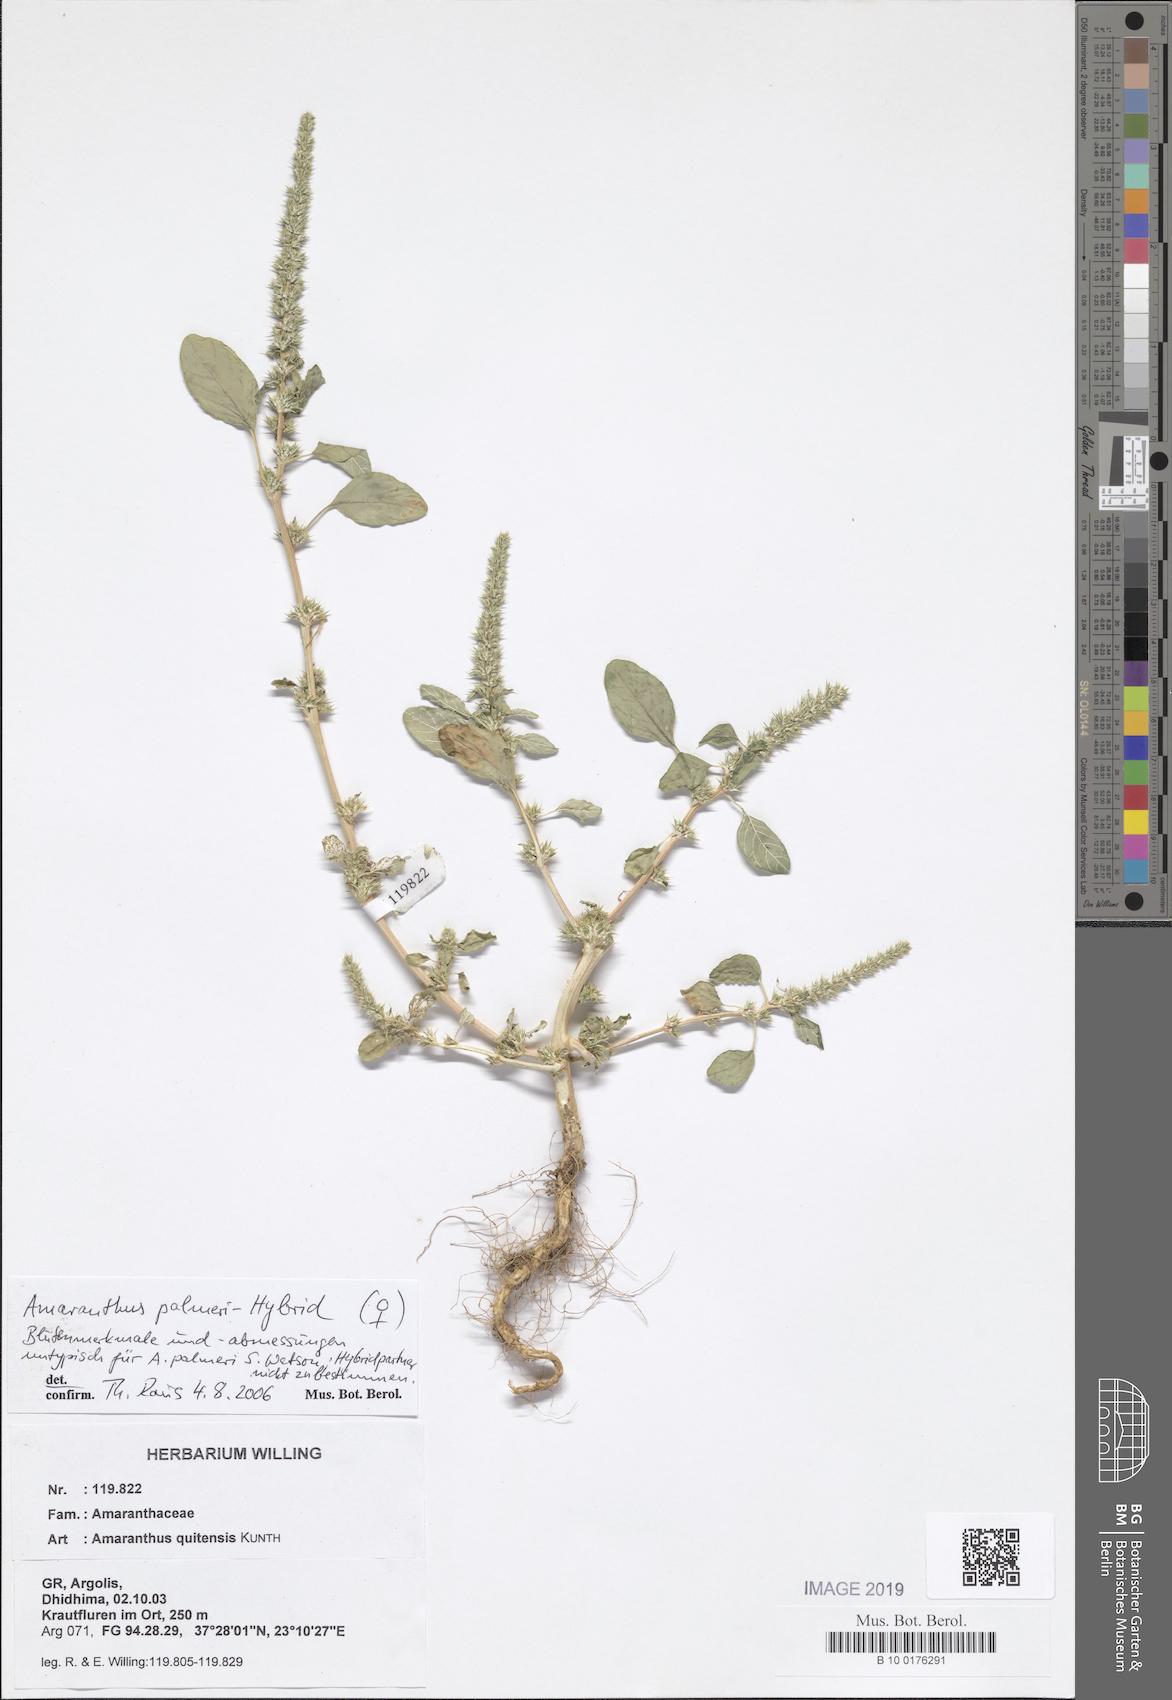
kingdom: Plantae
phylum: Tracheophyta
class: Magnoliopsida
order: Caryophyllales
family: Amaranthaceae
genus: Amaranthus
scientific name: Amaranthus quitensis
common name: Mucronate amaranth
